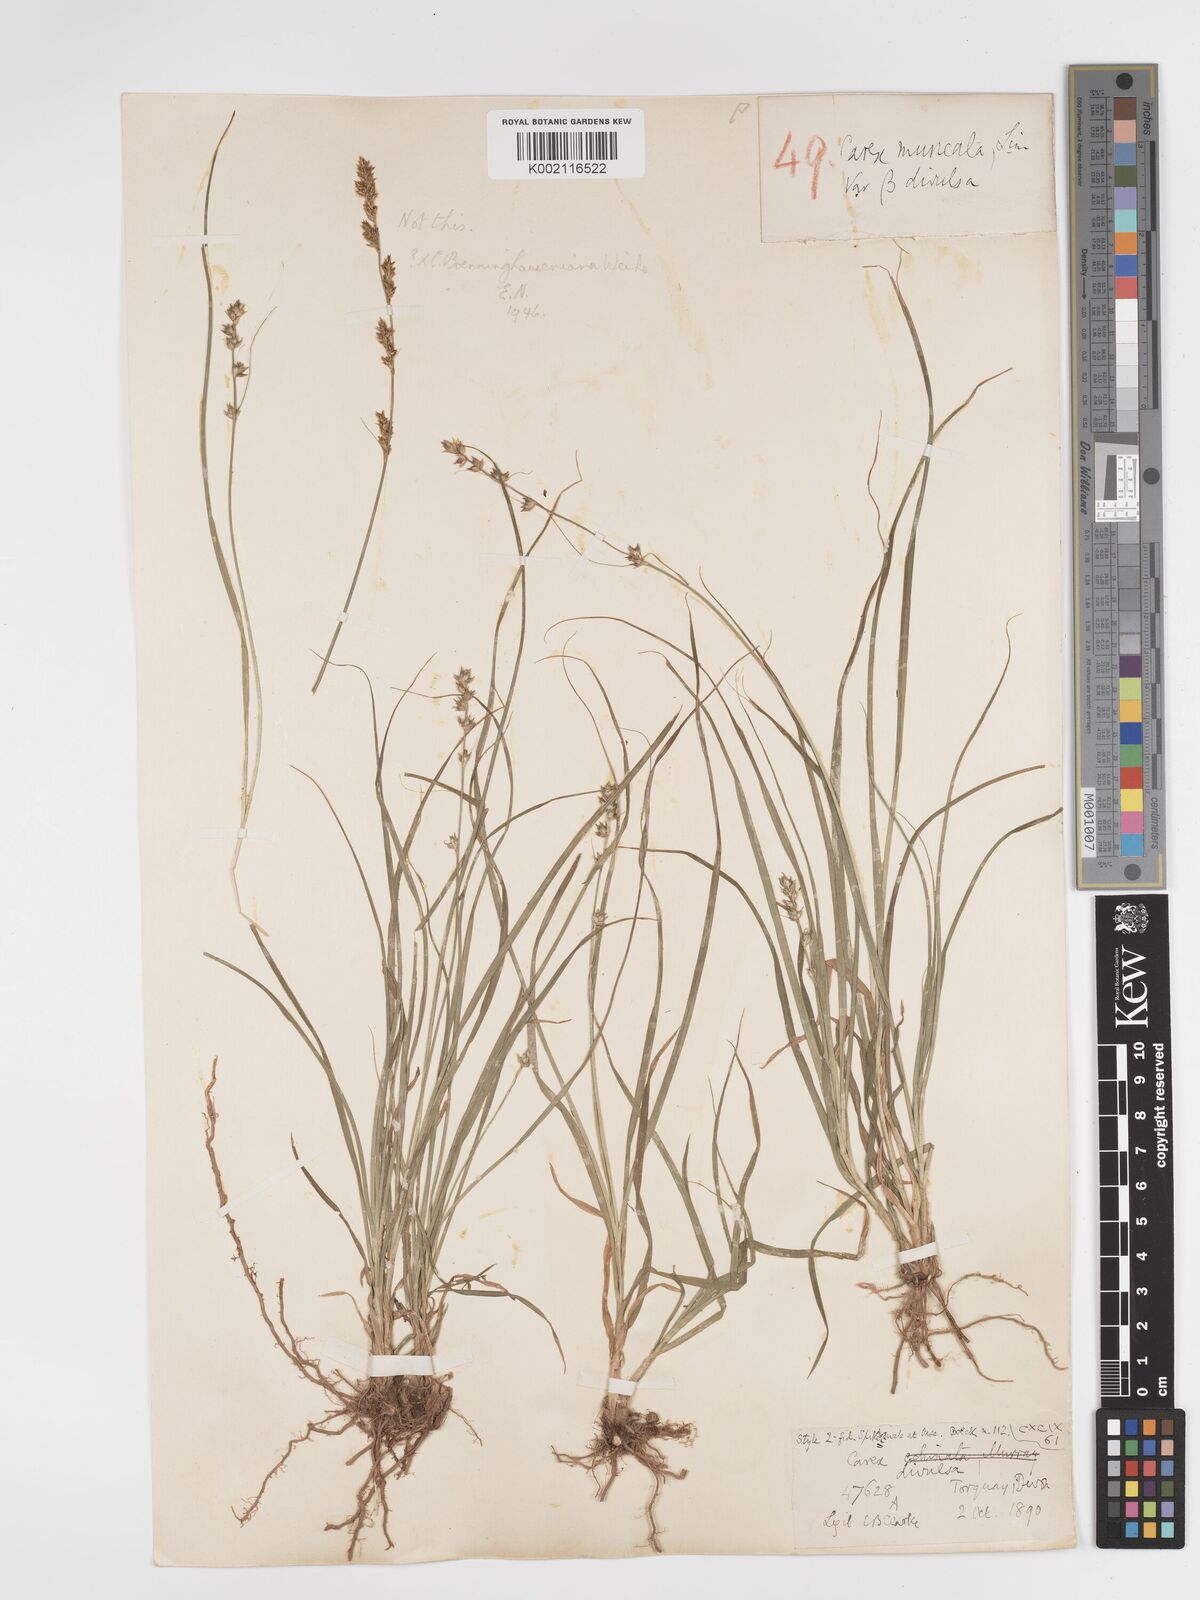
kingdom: Plantae
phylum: Tracheophyta
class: Liliopsida
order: Poales
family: Cyperaceae
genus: Carex
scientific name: Carex divulsa
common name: Grassland sedge
